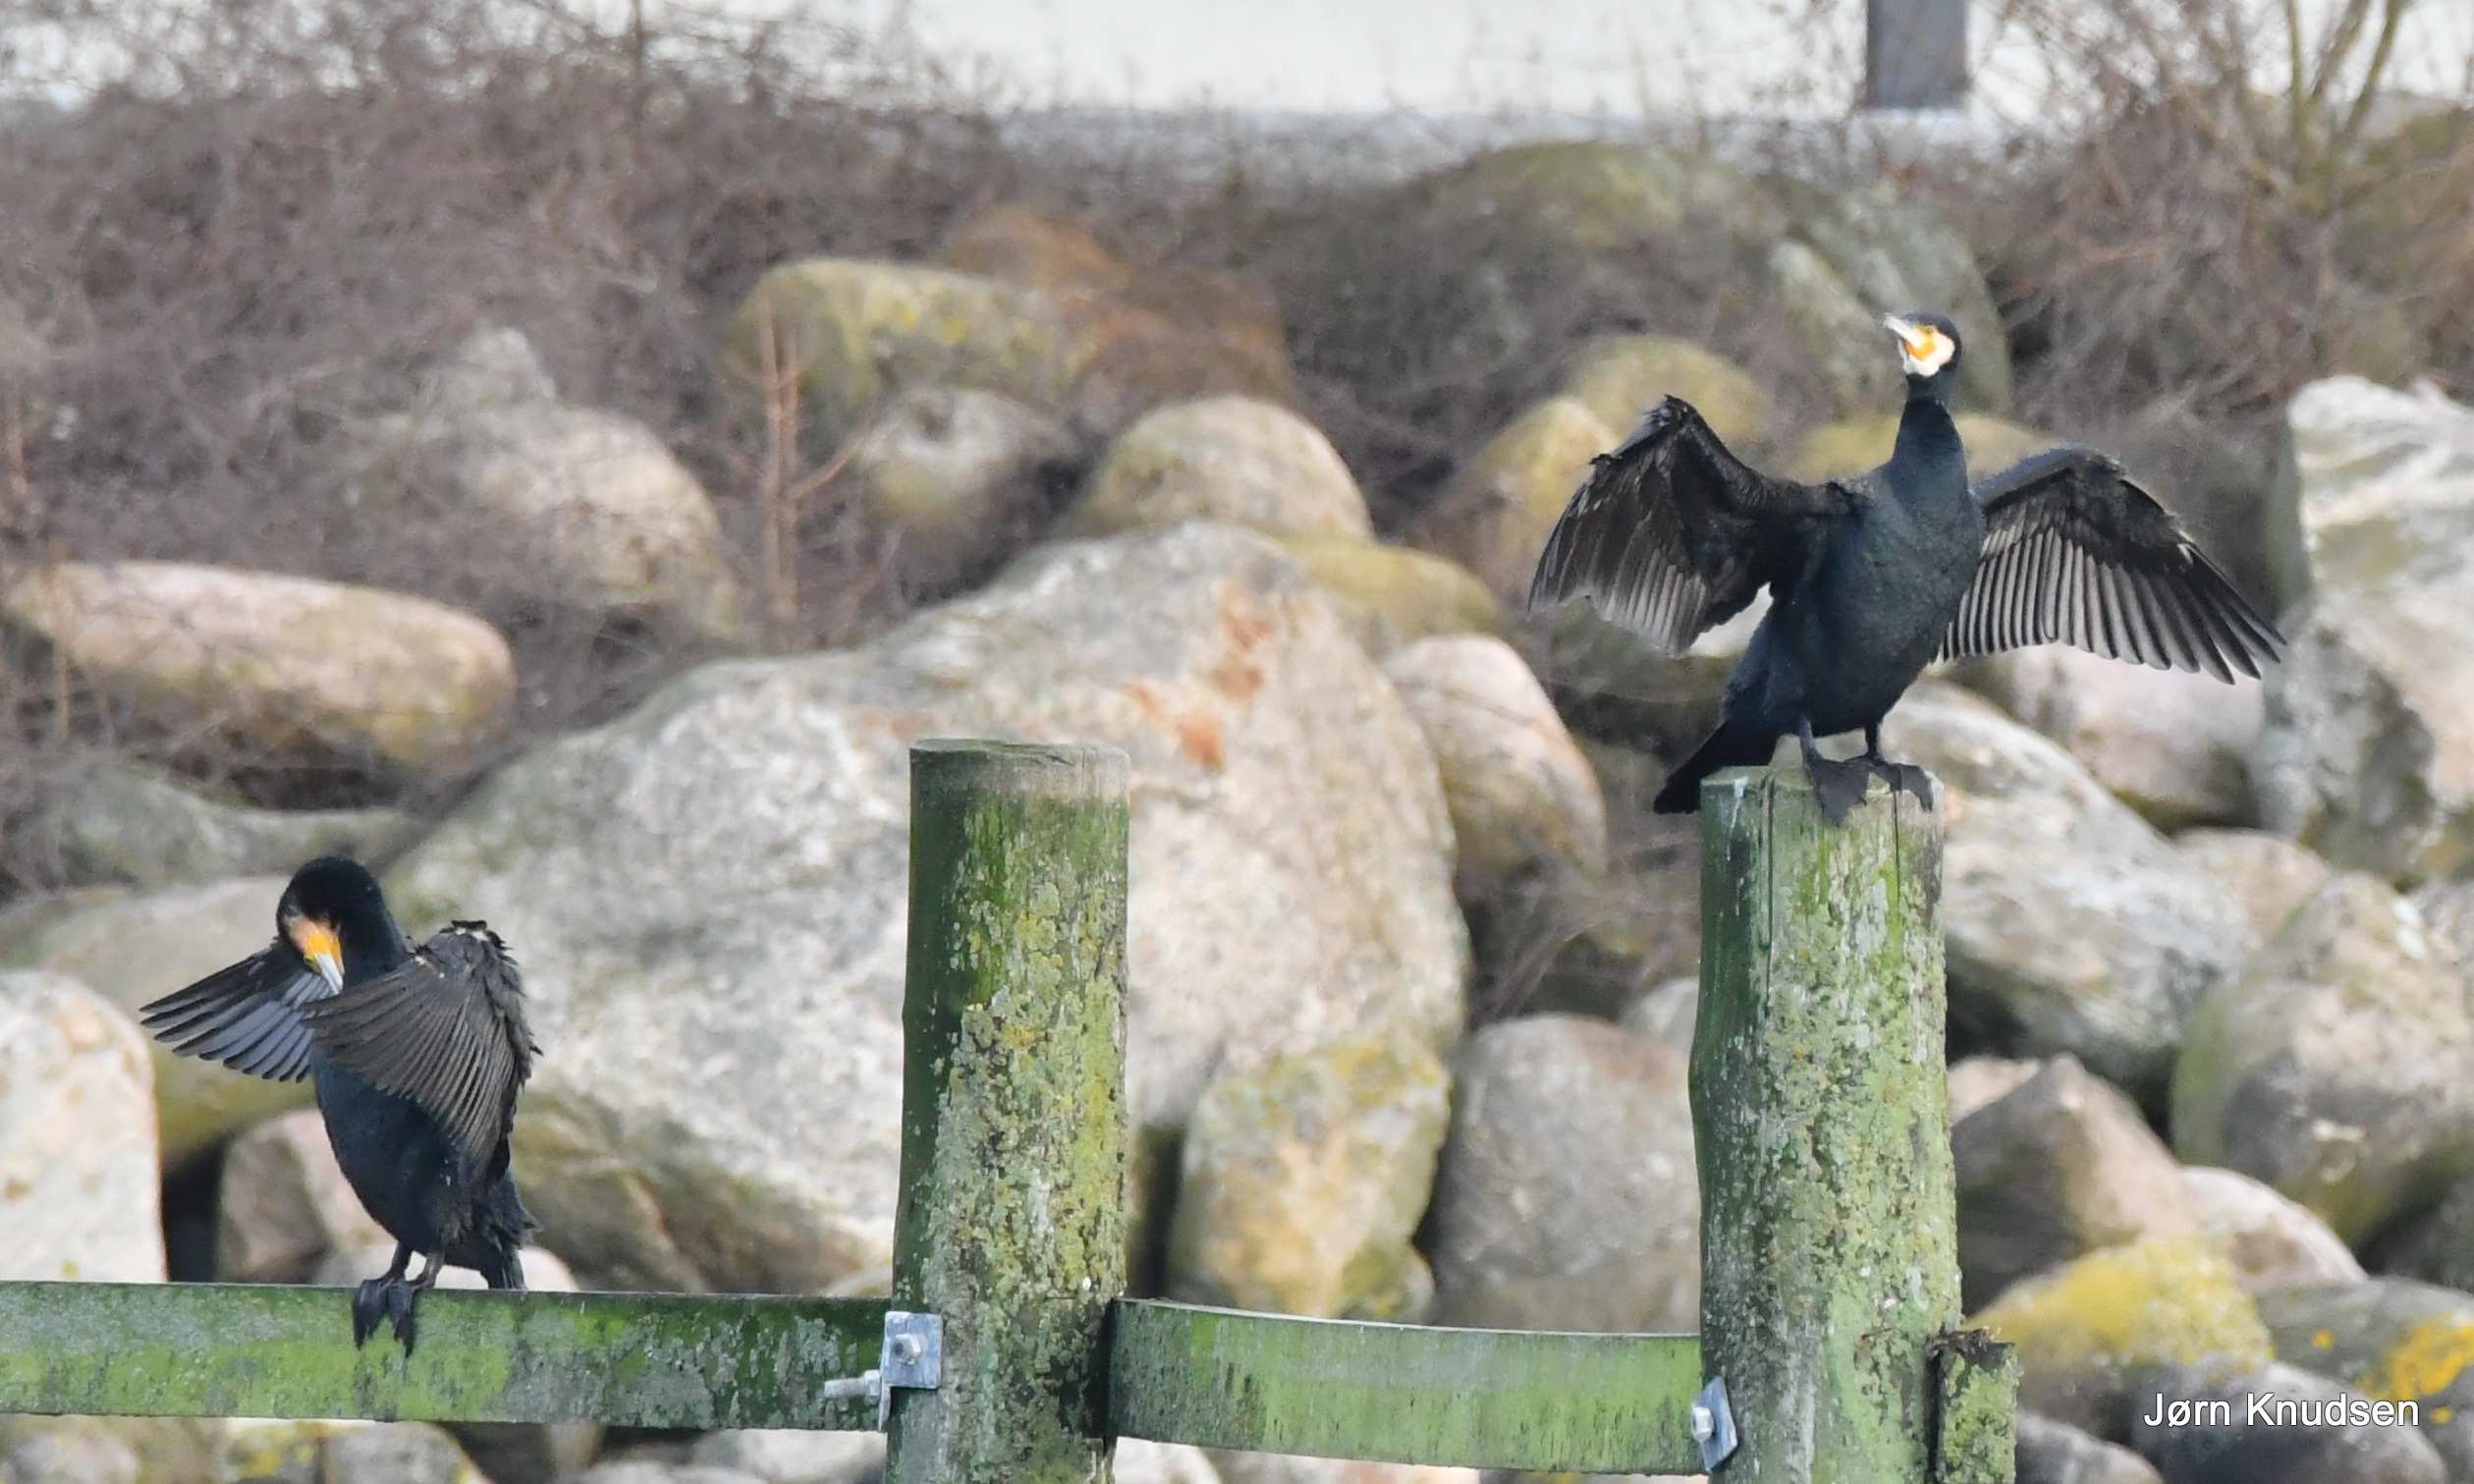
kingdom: Animalia
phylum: Chordata
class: Aves
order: Suliformes
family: Phalacrocoracidae
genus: Phalacrocorax
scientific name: Phalacrocorax carbo
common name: Skarv
